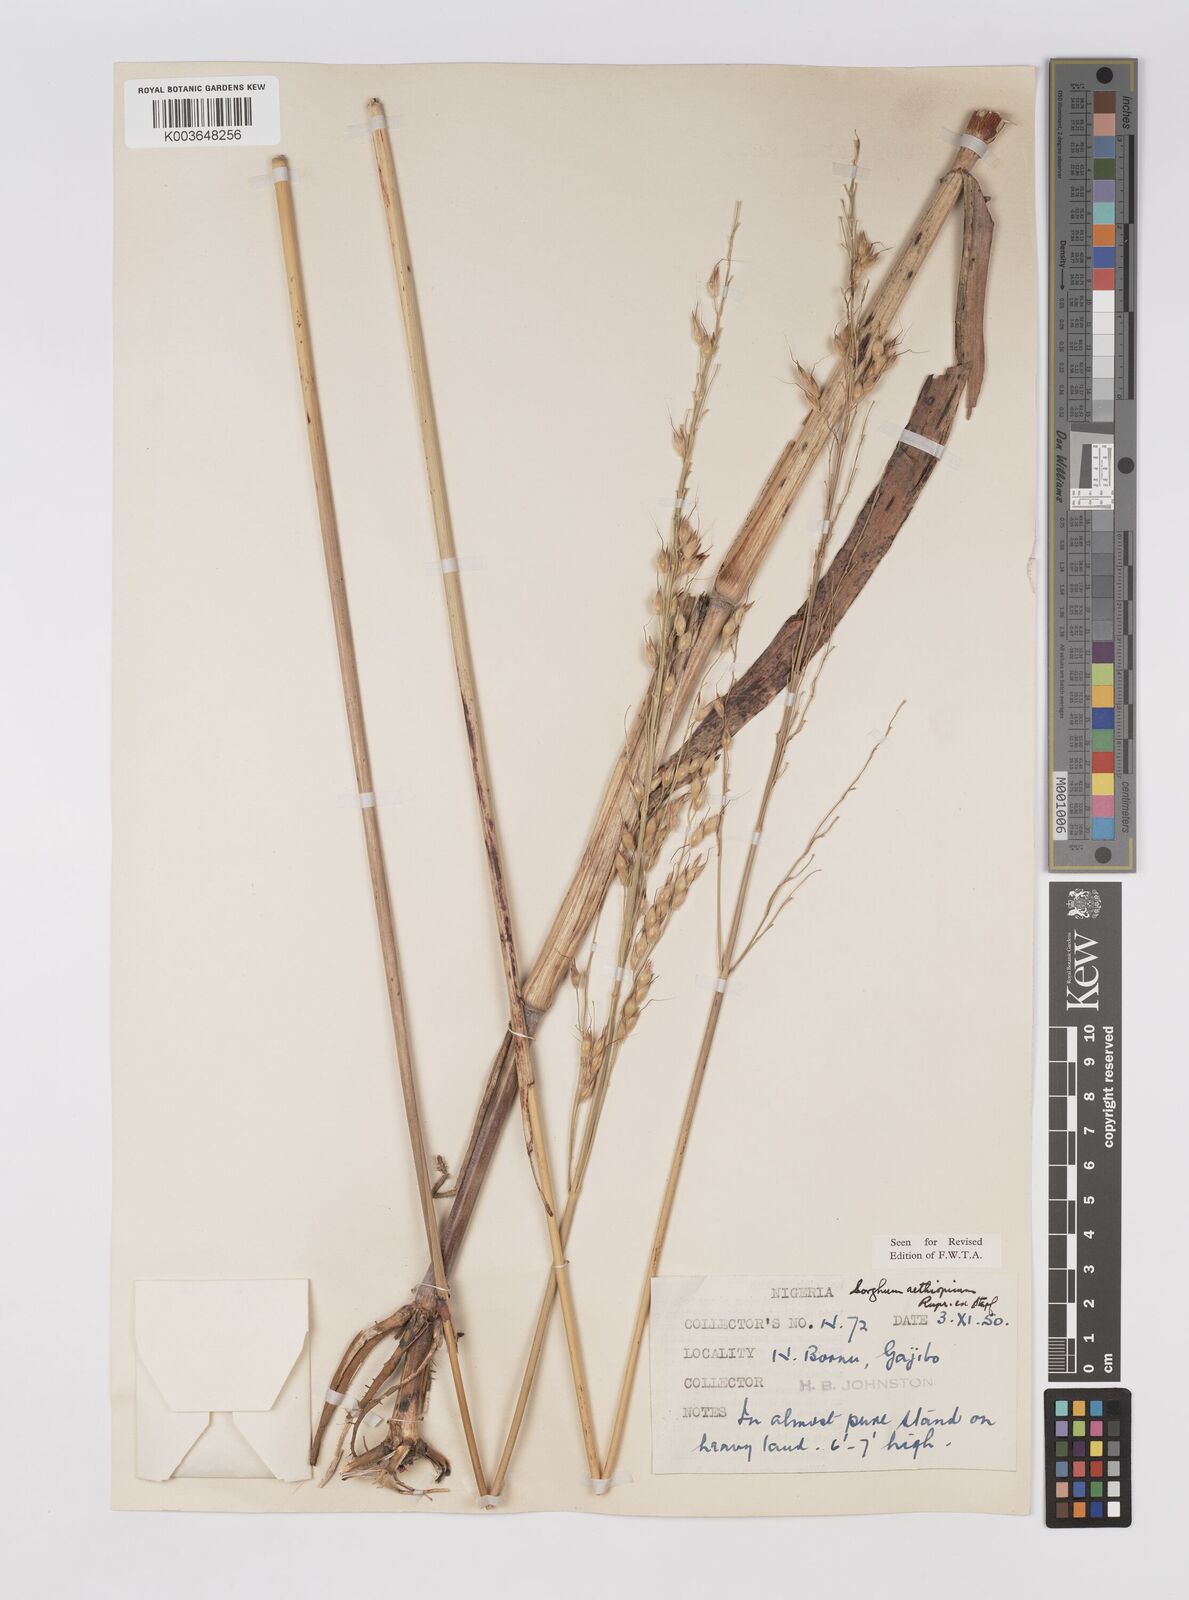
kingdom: Plantae
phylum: Tracheophyta
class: Liliopsida
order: Poales
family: Poaceae
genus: Sorghum
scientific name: Sorghum arundinaceum
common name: Sorghum
